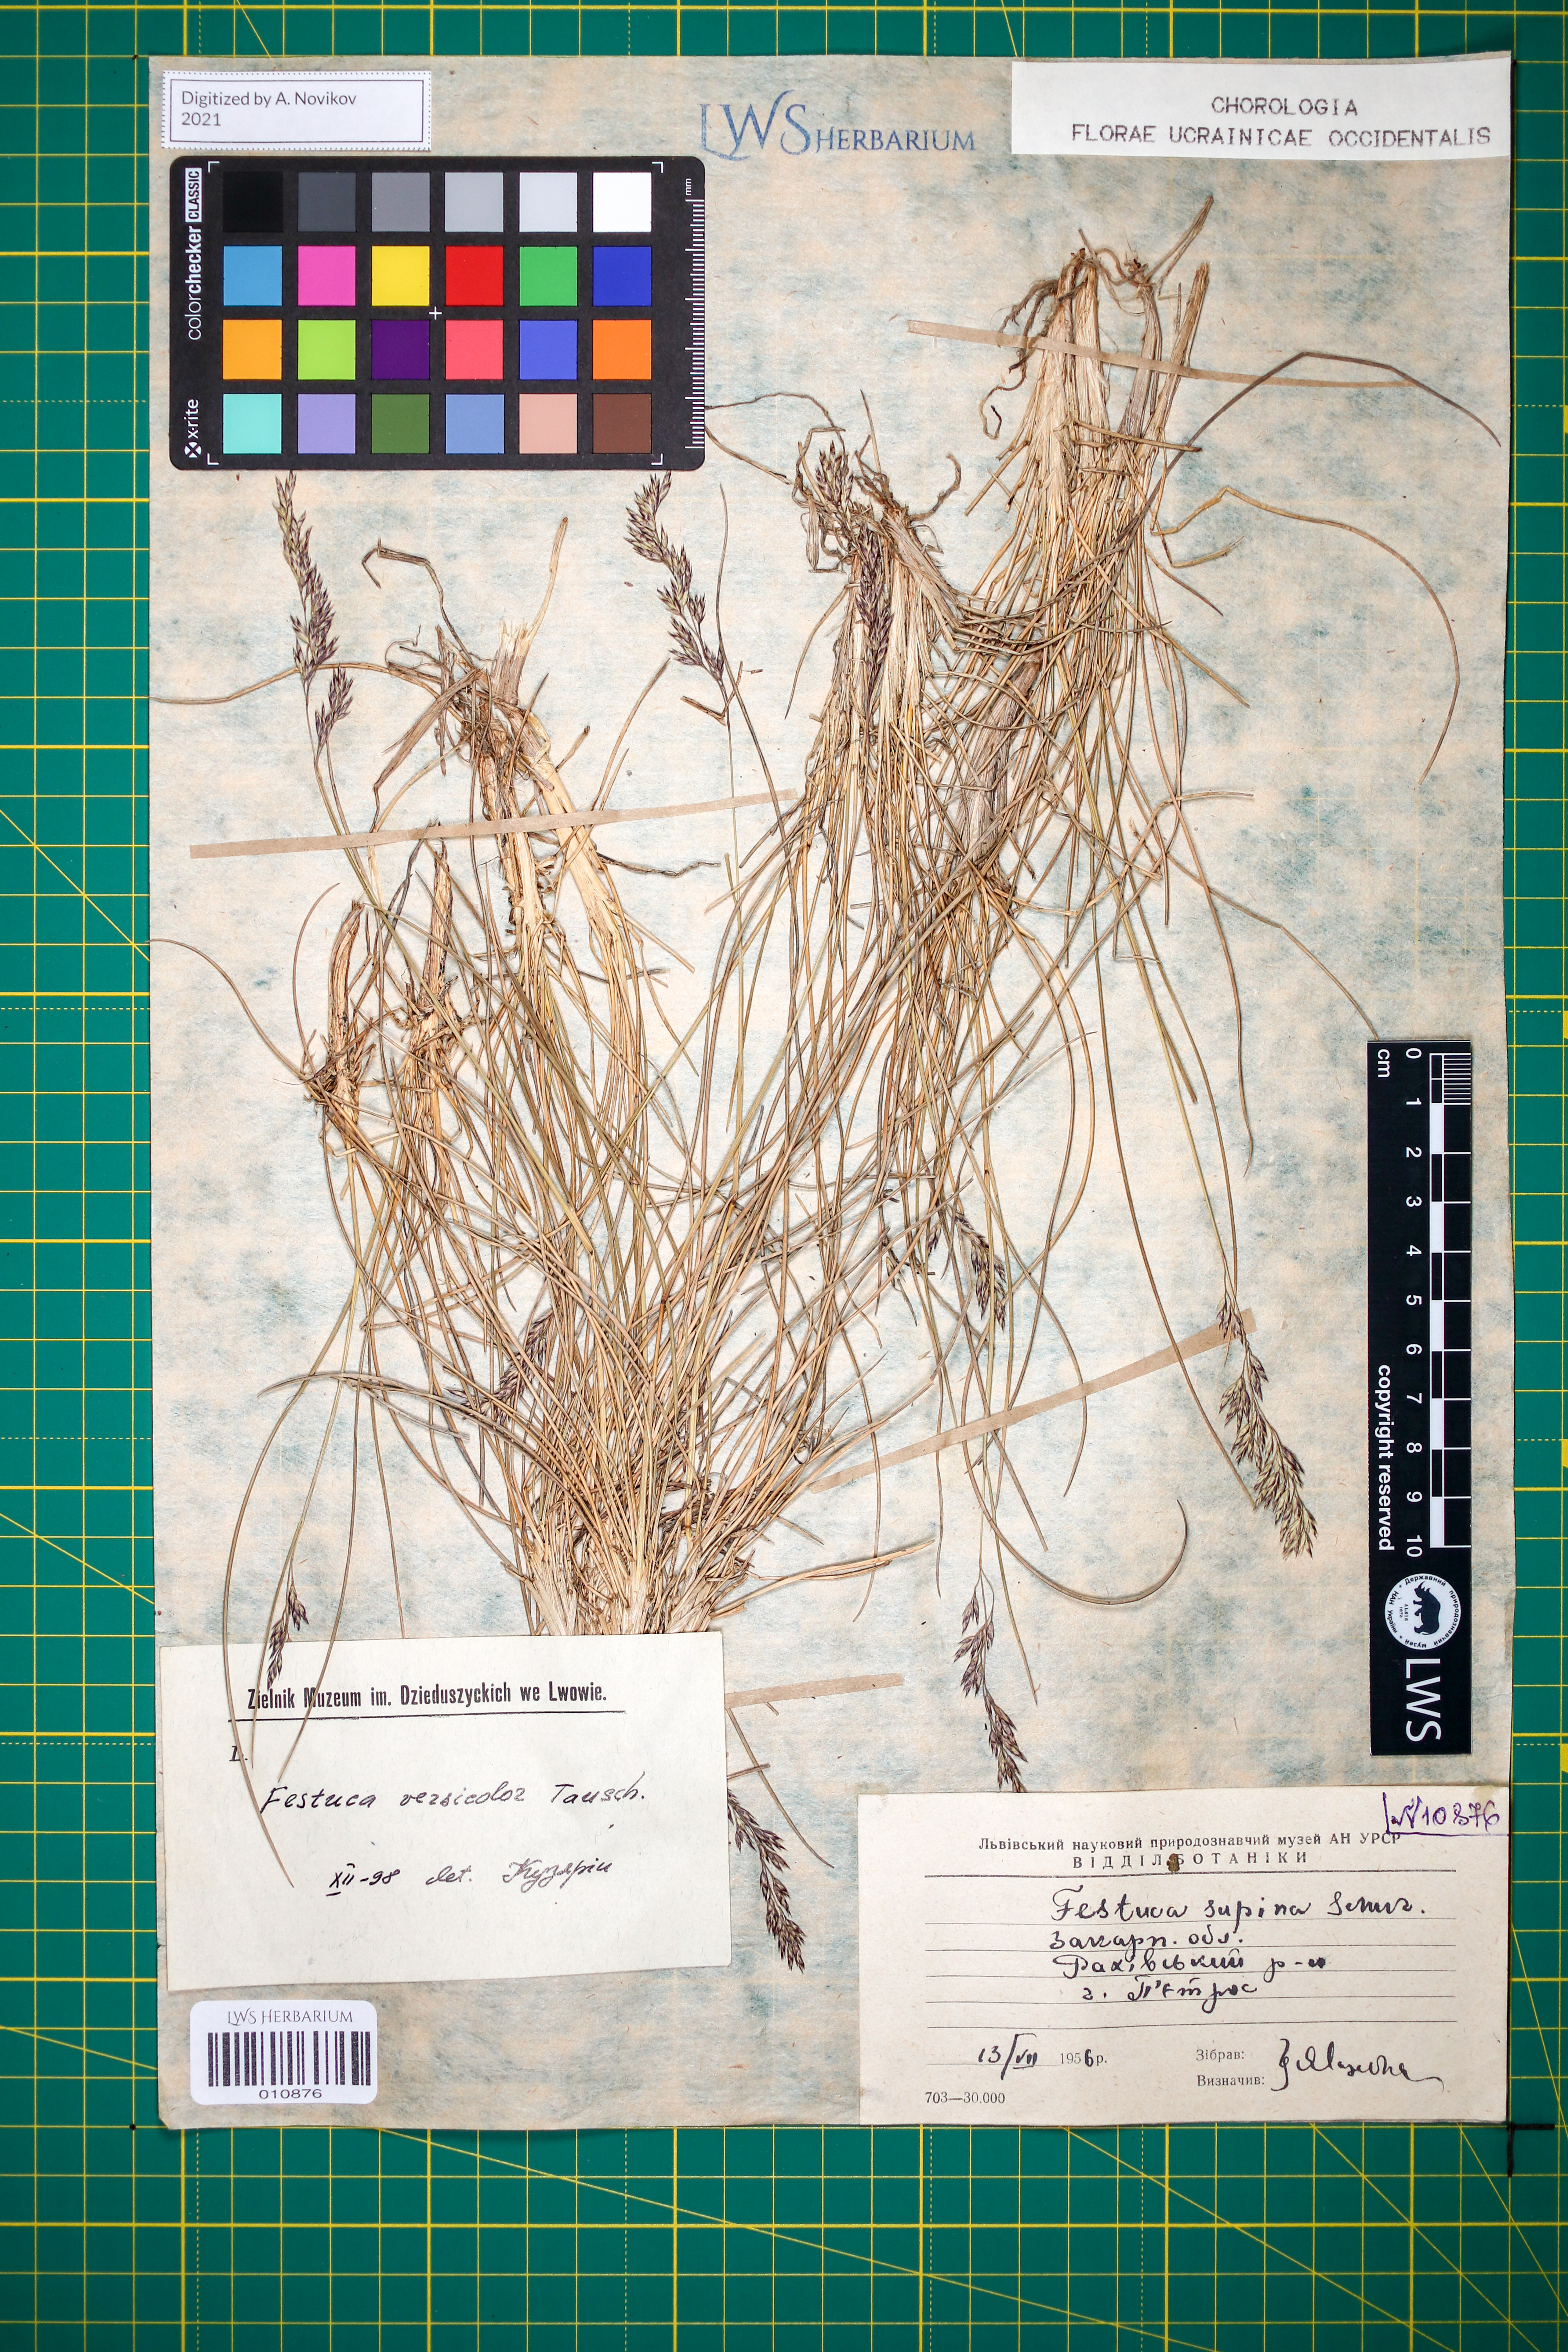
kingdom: Plantae
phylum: Tracheophyta
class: Liliopsida
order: Poales
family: Poaceae
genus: Festuca
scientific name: Festuca versicolor
